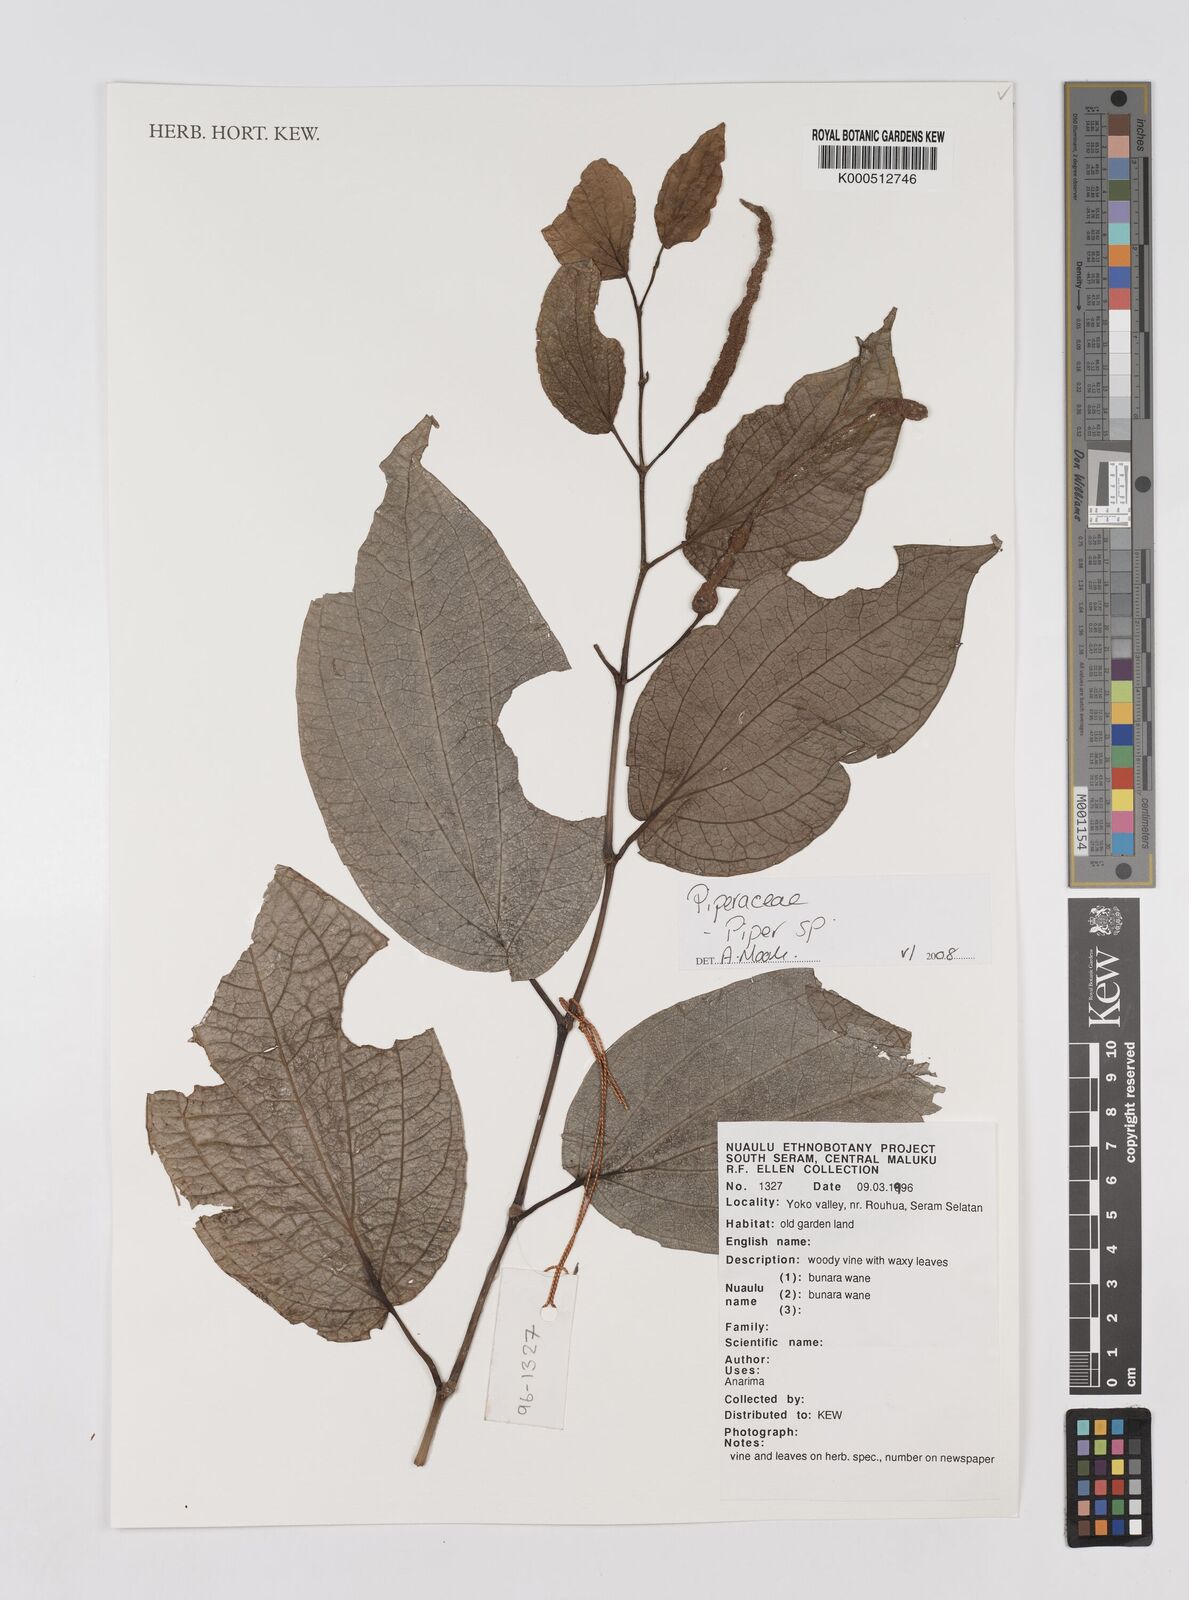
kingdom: Plantae
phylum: Tracheophyta
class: Magnoliopsida
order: Piperales
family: Piperaceae
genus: Piper
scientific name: Piper
